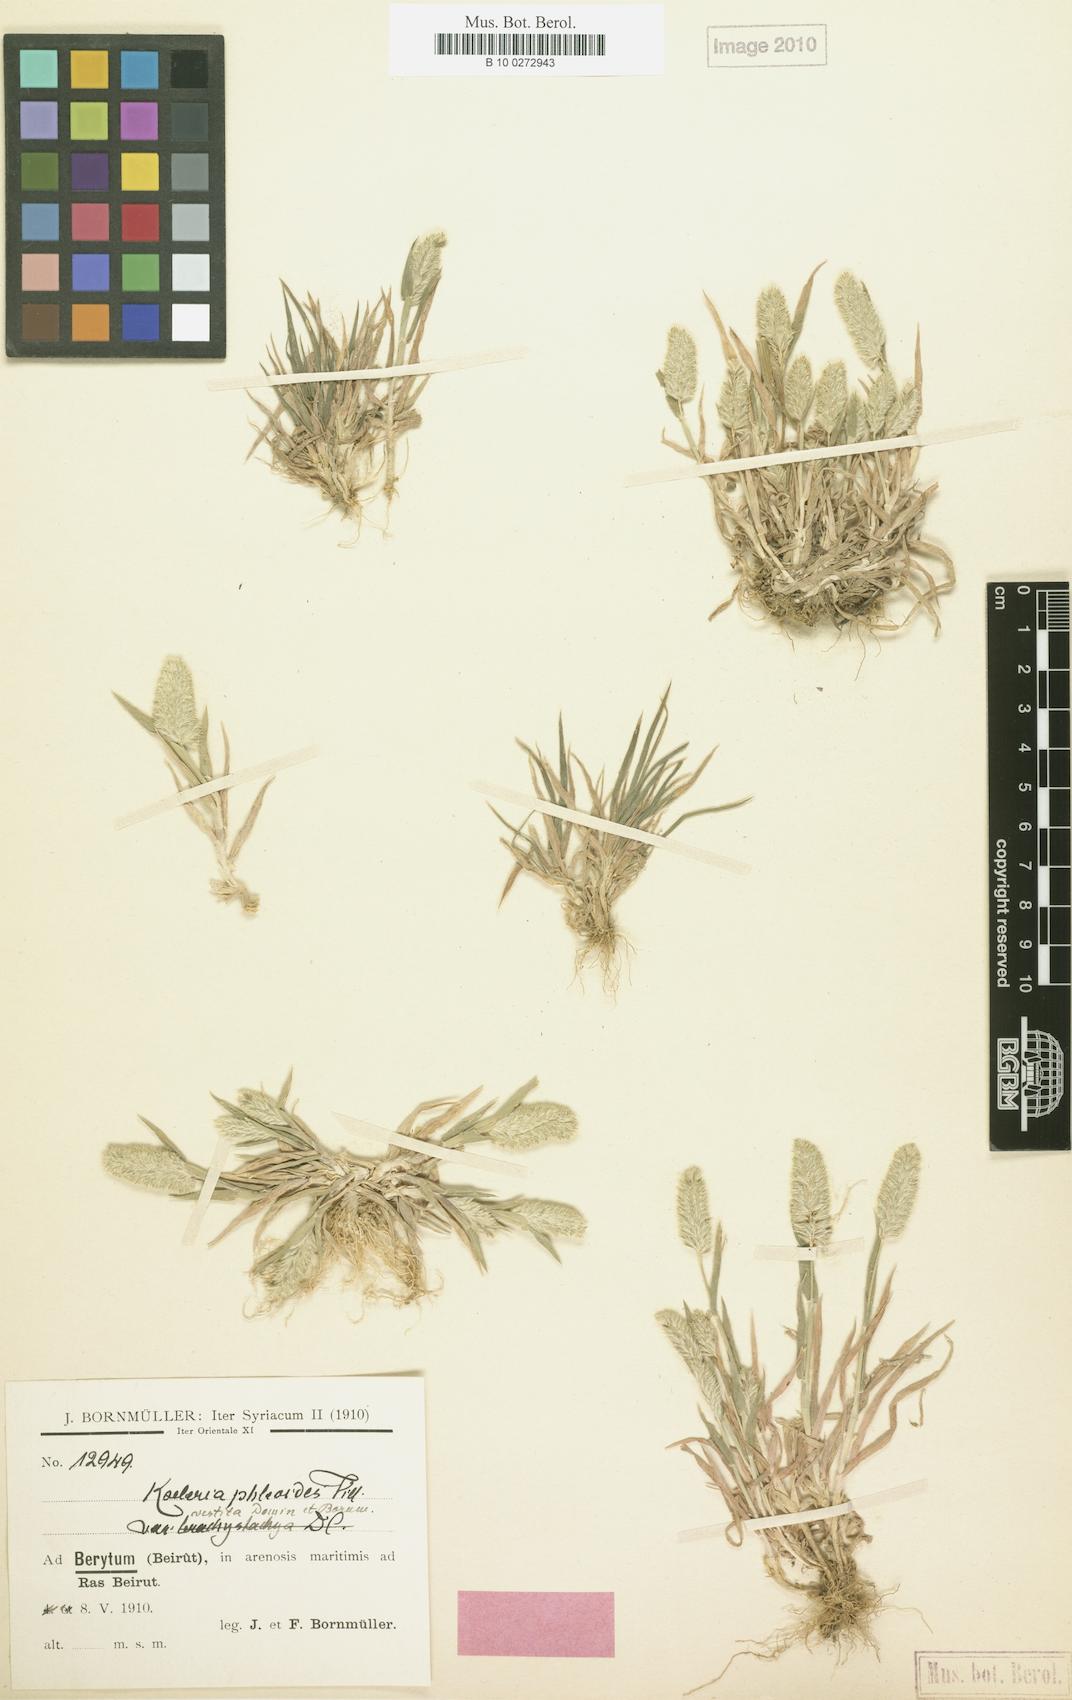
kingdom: Plantae
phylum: Tracheophyta
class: Liliopsida
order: Poales
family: Poaceae
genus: Rostraria
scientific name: Rostraria cristata
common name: Mediterranean hair-grass
